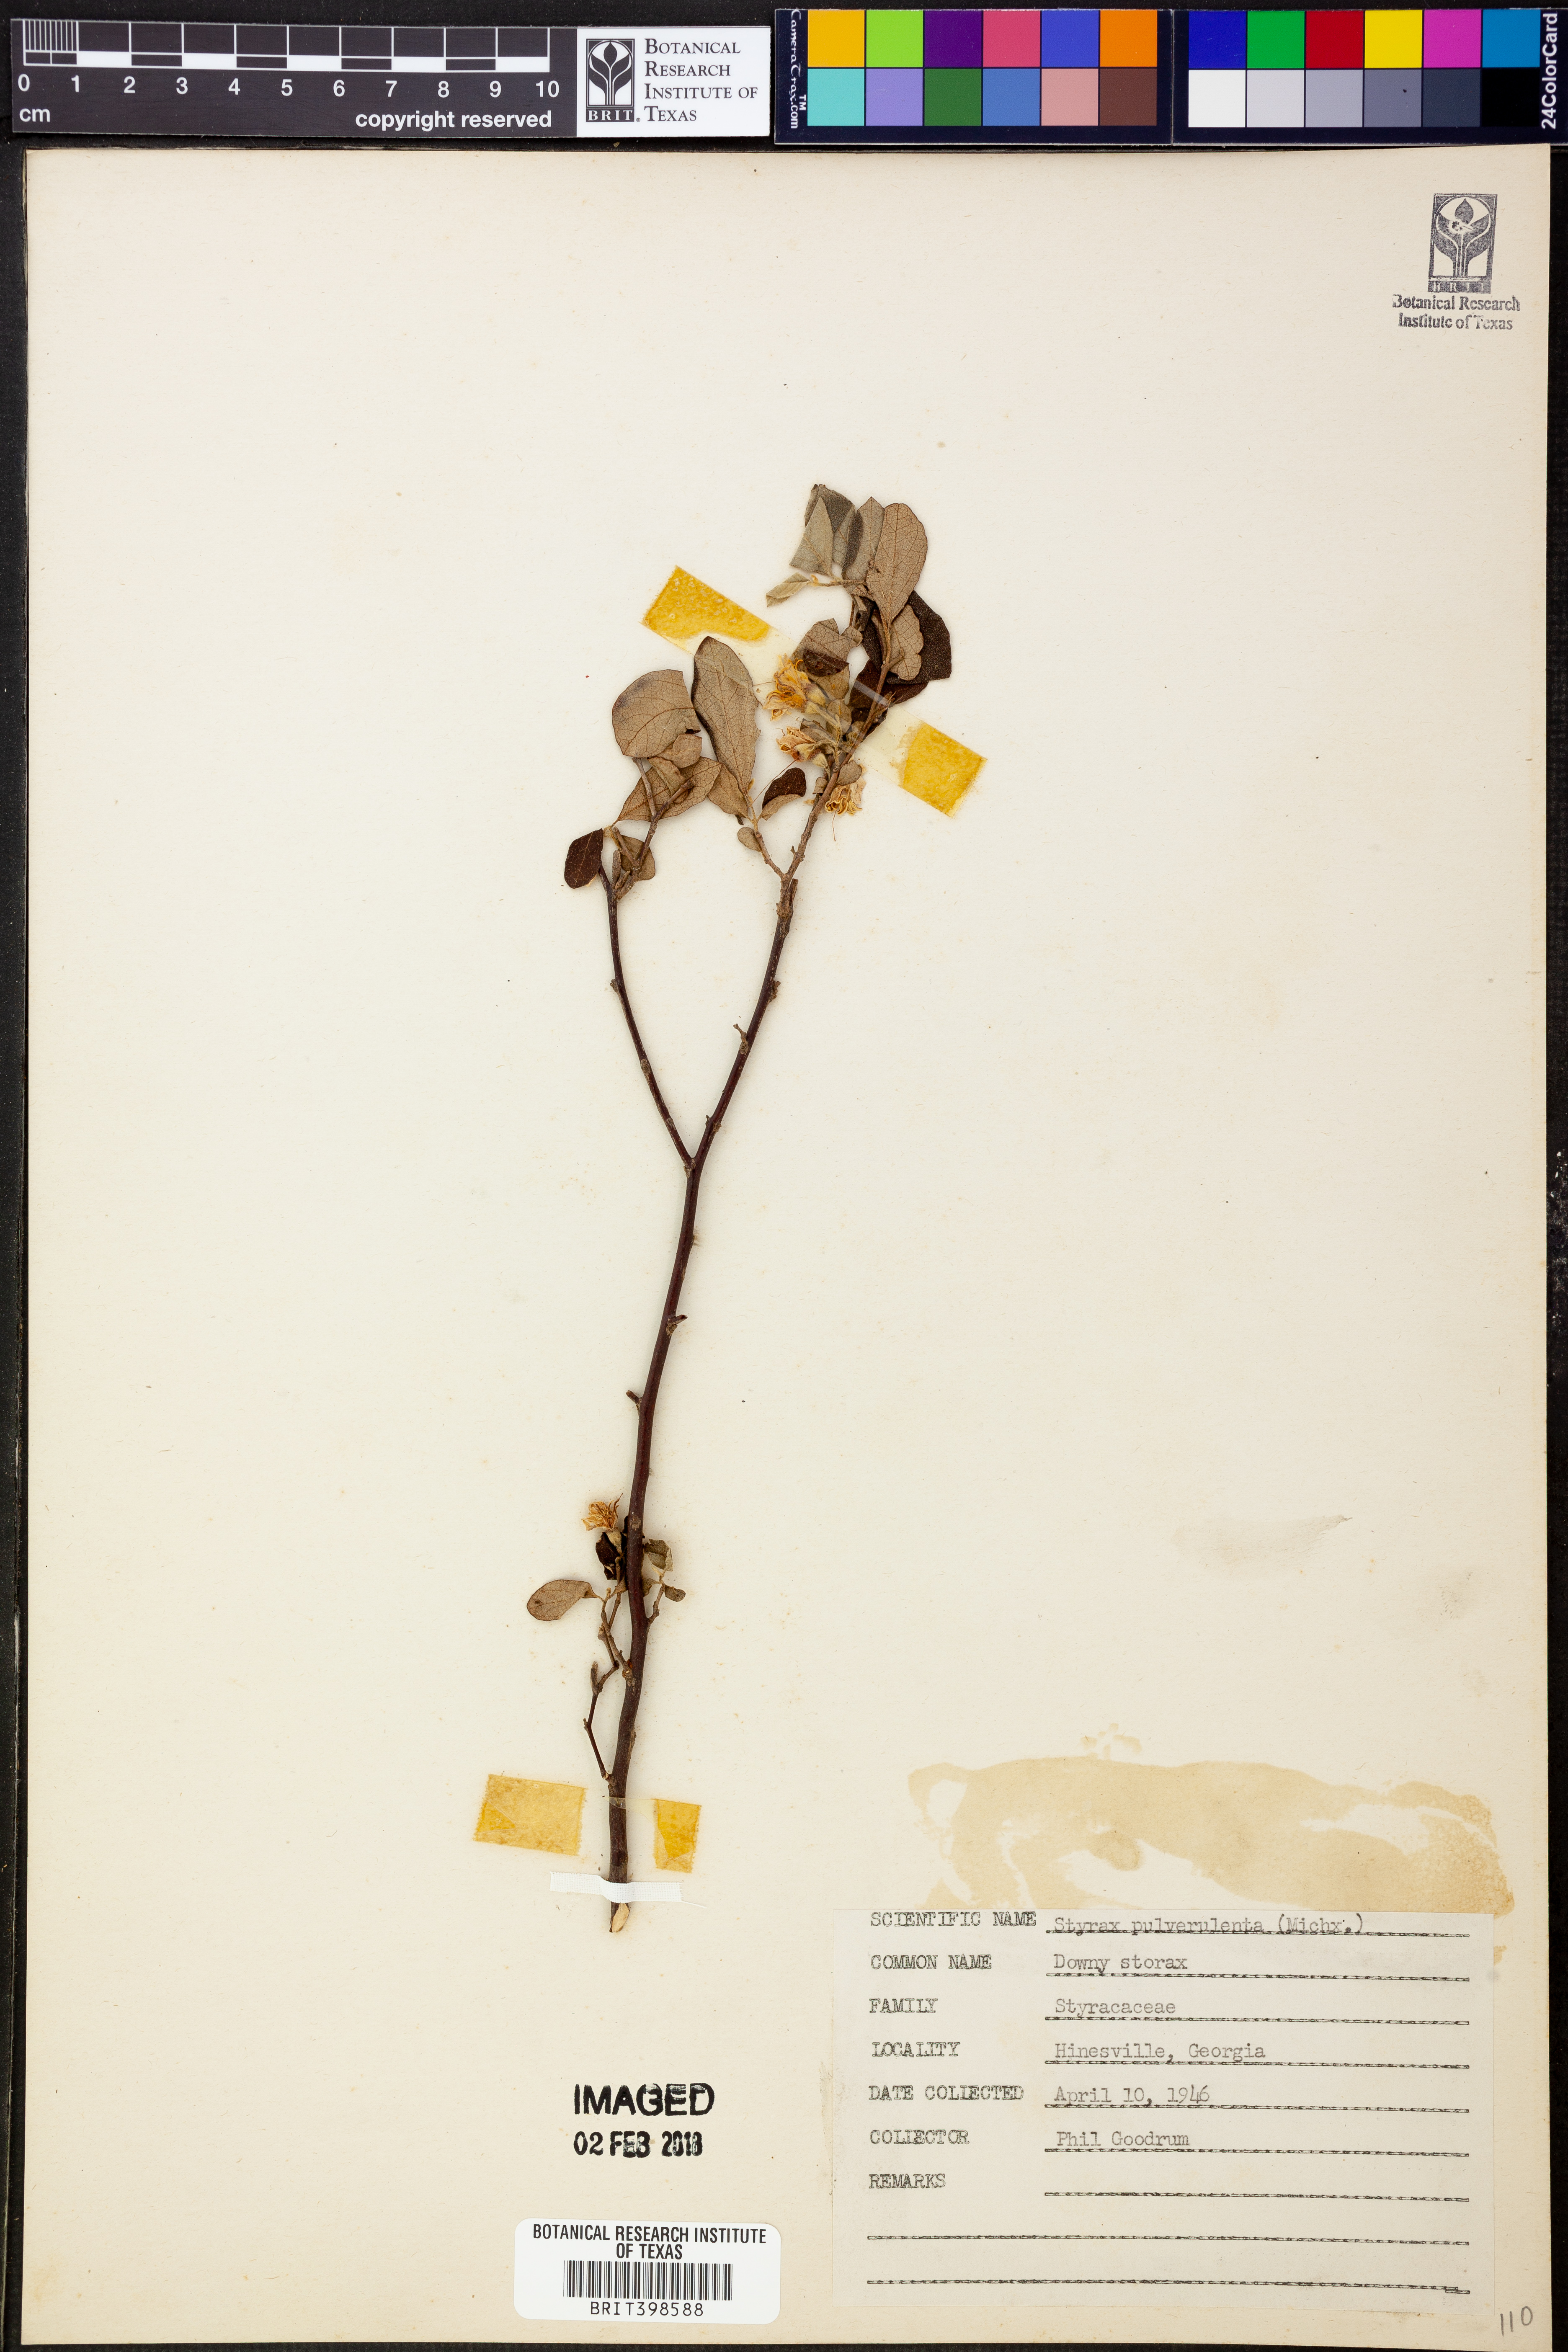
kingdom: Plantae
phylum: Tracheophyta
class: Magnoliopsida
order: Ericales
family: Styracaceae
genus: Styrax
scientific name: Styrax americanus
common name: American snowbell
